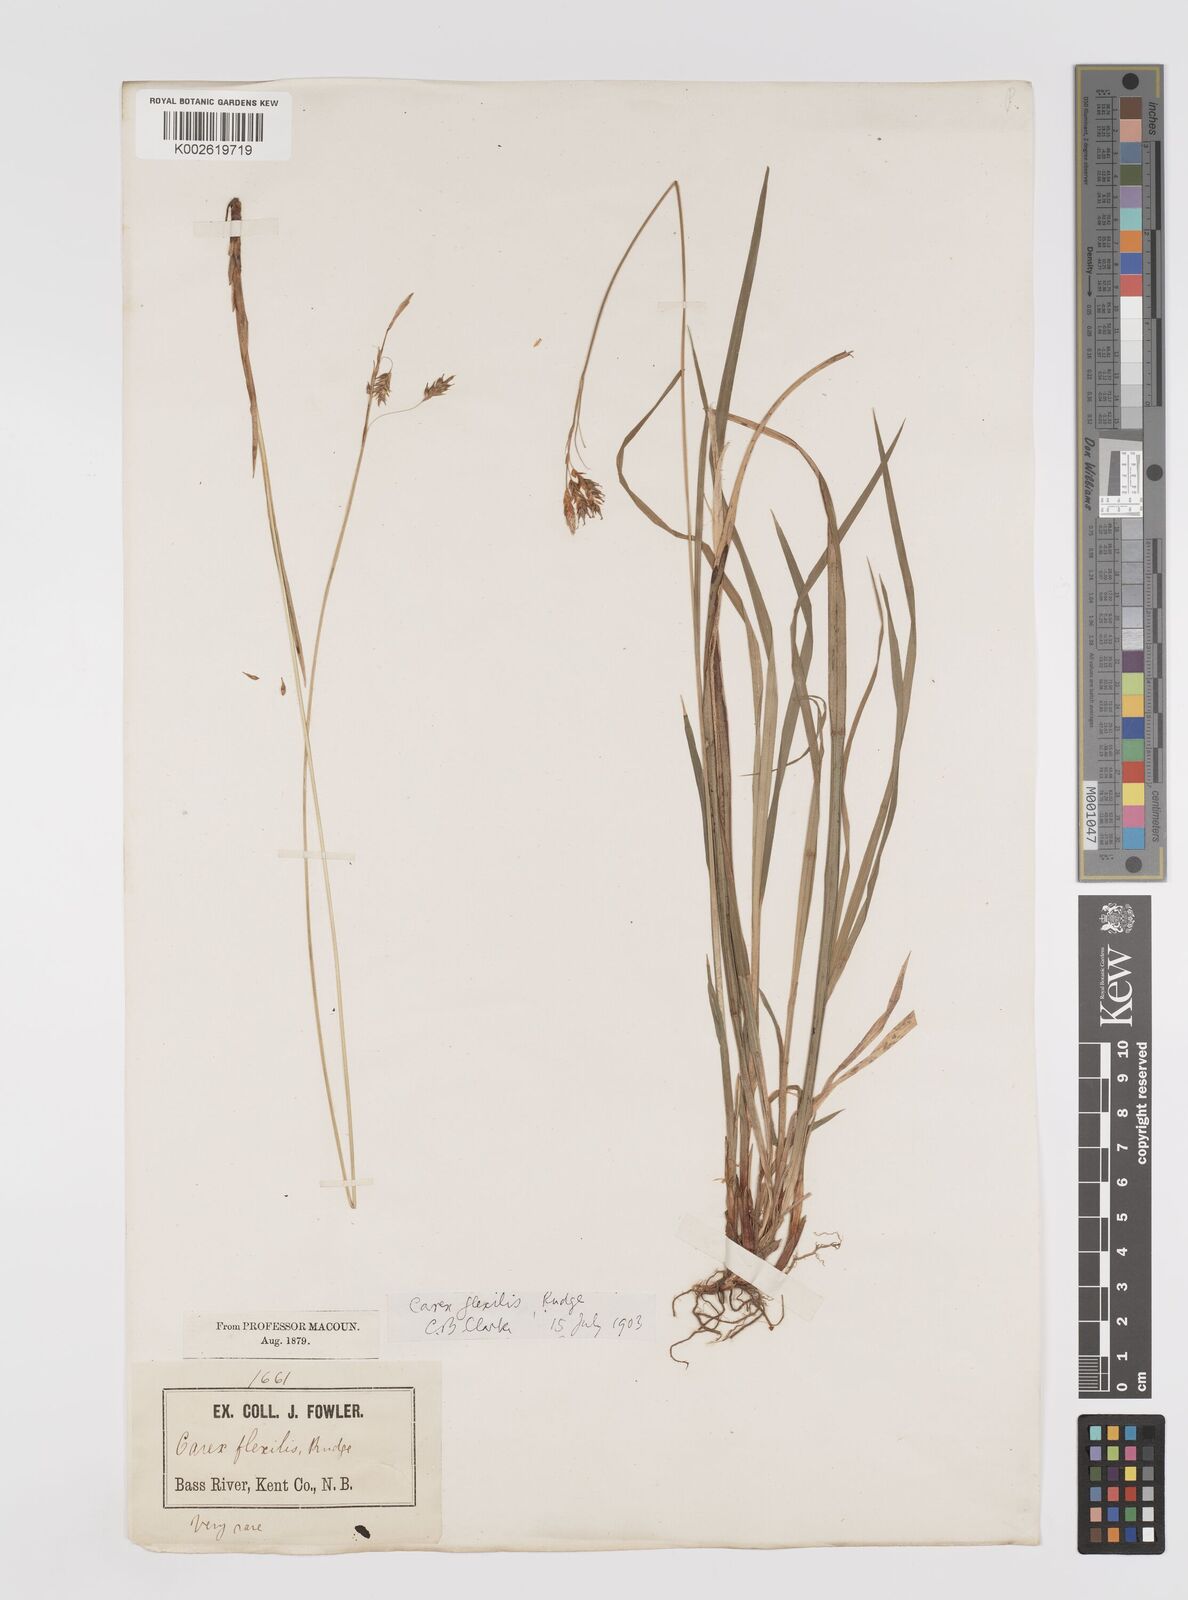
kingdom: Plantae
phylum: Tracheophyta
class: Liliopsida
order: Poales
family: Cyperaceae
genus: Carex
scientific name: Carex castanea
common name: Chestnut sedge
